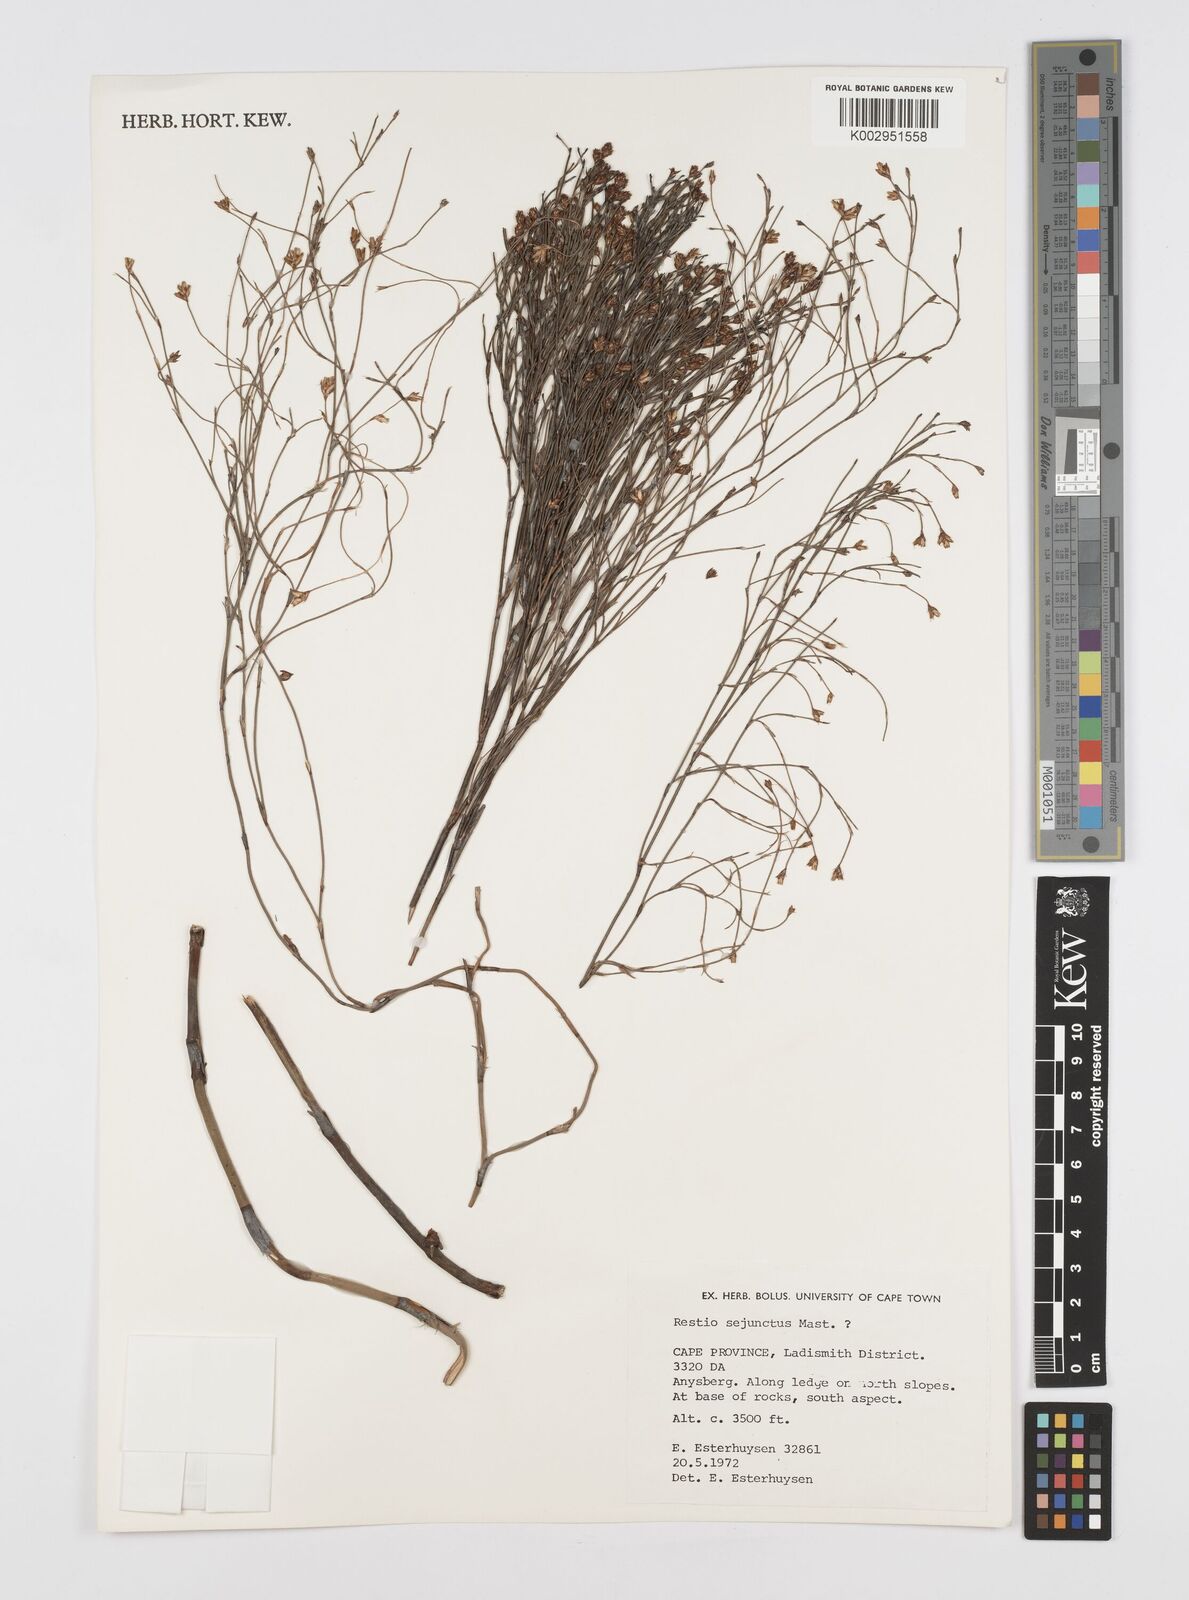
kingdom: Plantae
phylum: Tracheophyta
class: Liliopsida
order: Poales
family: Restionaceae
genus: Restio
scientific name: Restio sejunctus
